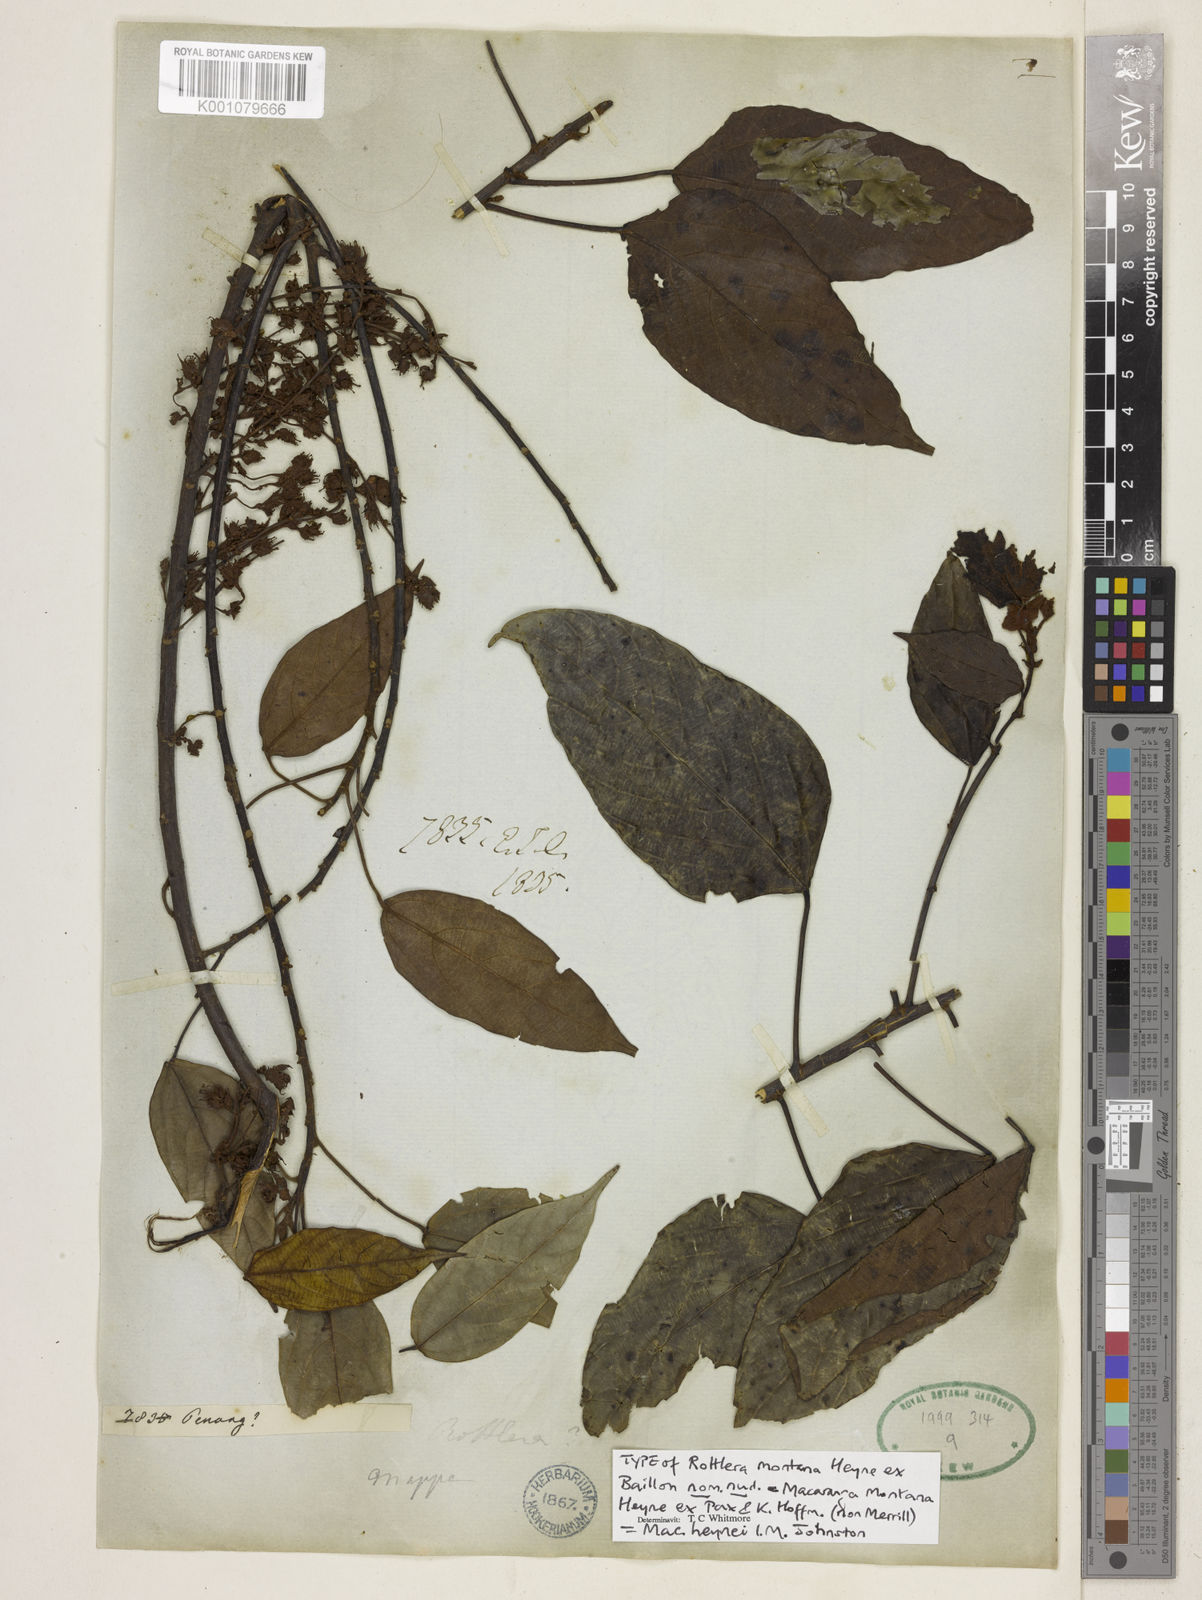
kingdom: Plantae
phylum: Tracheophyta
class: Magnoliopsida
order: Malpighiales
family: Euphorbiaceae
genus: Macaranga
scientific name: Macaranga heynei
